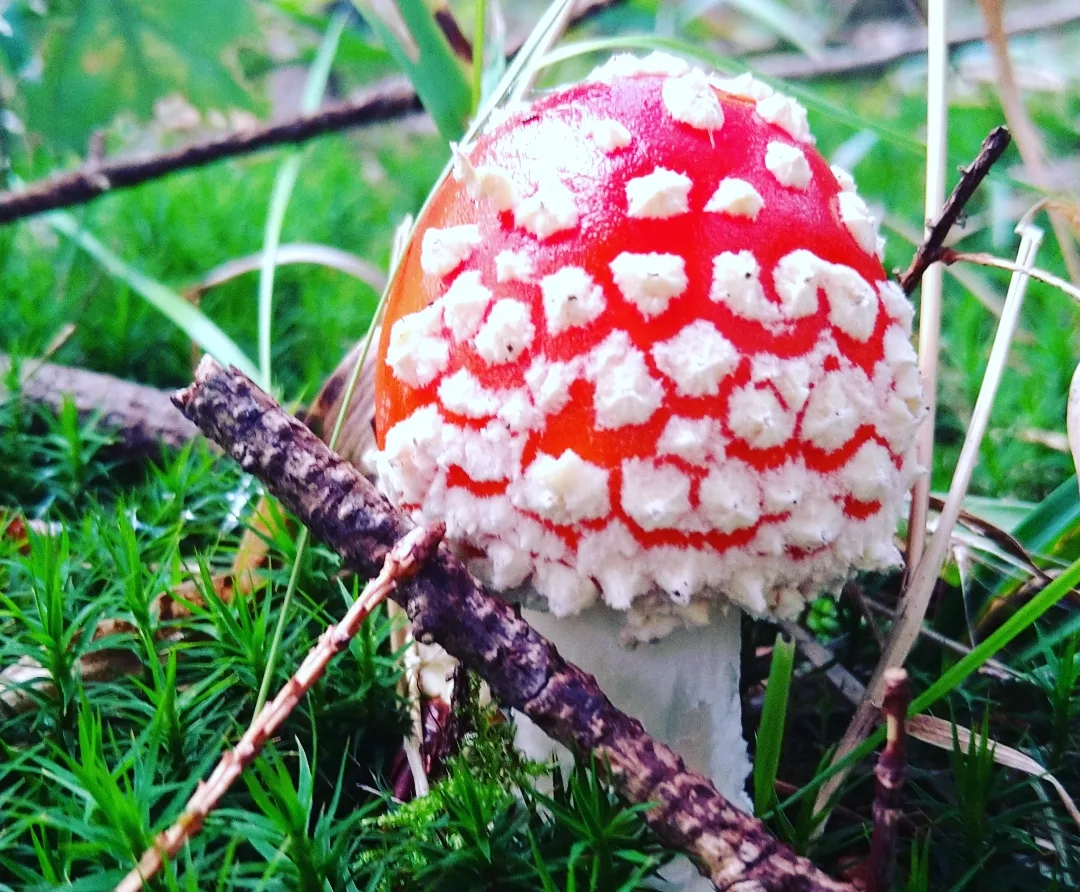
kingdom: Fungi
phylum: Basidiomycota
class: Agaricomycetes
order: Agaricales
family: Amanitaceae
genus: Amanita
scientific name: Amanita muscaria
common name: rød fluesvamp
